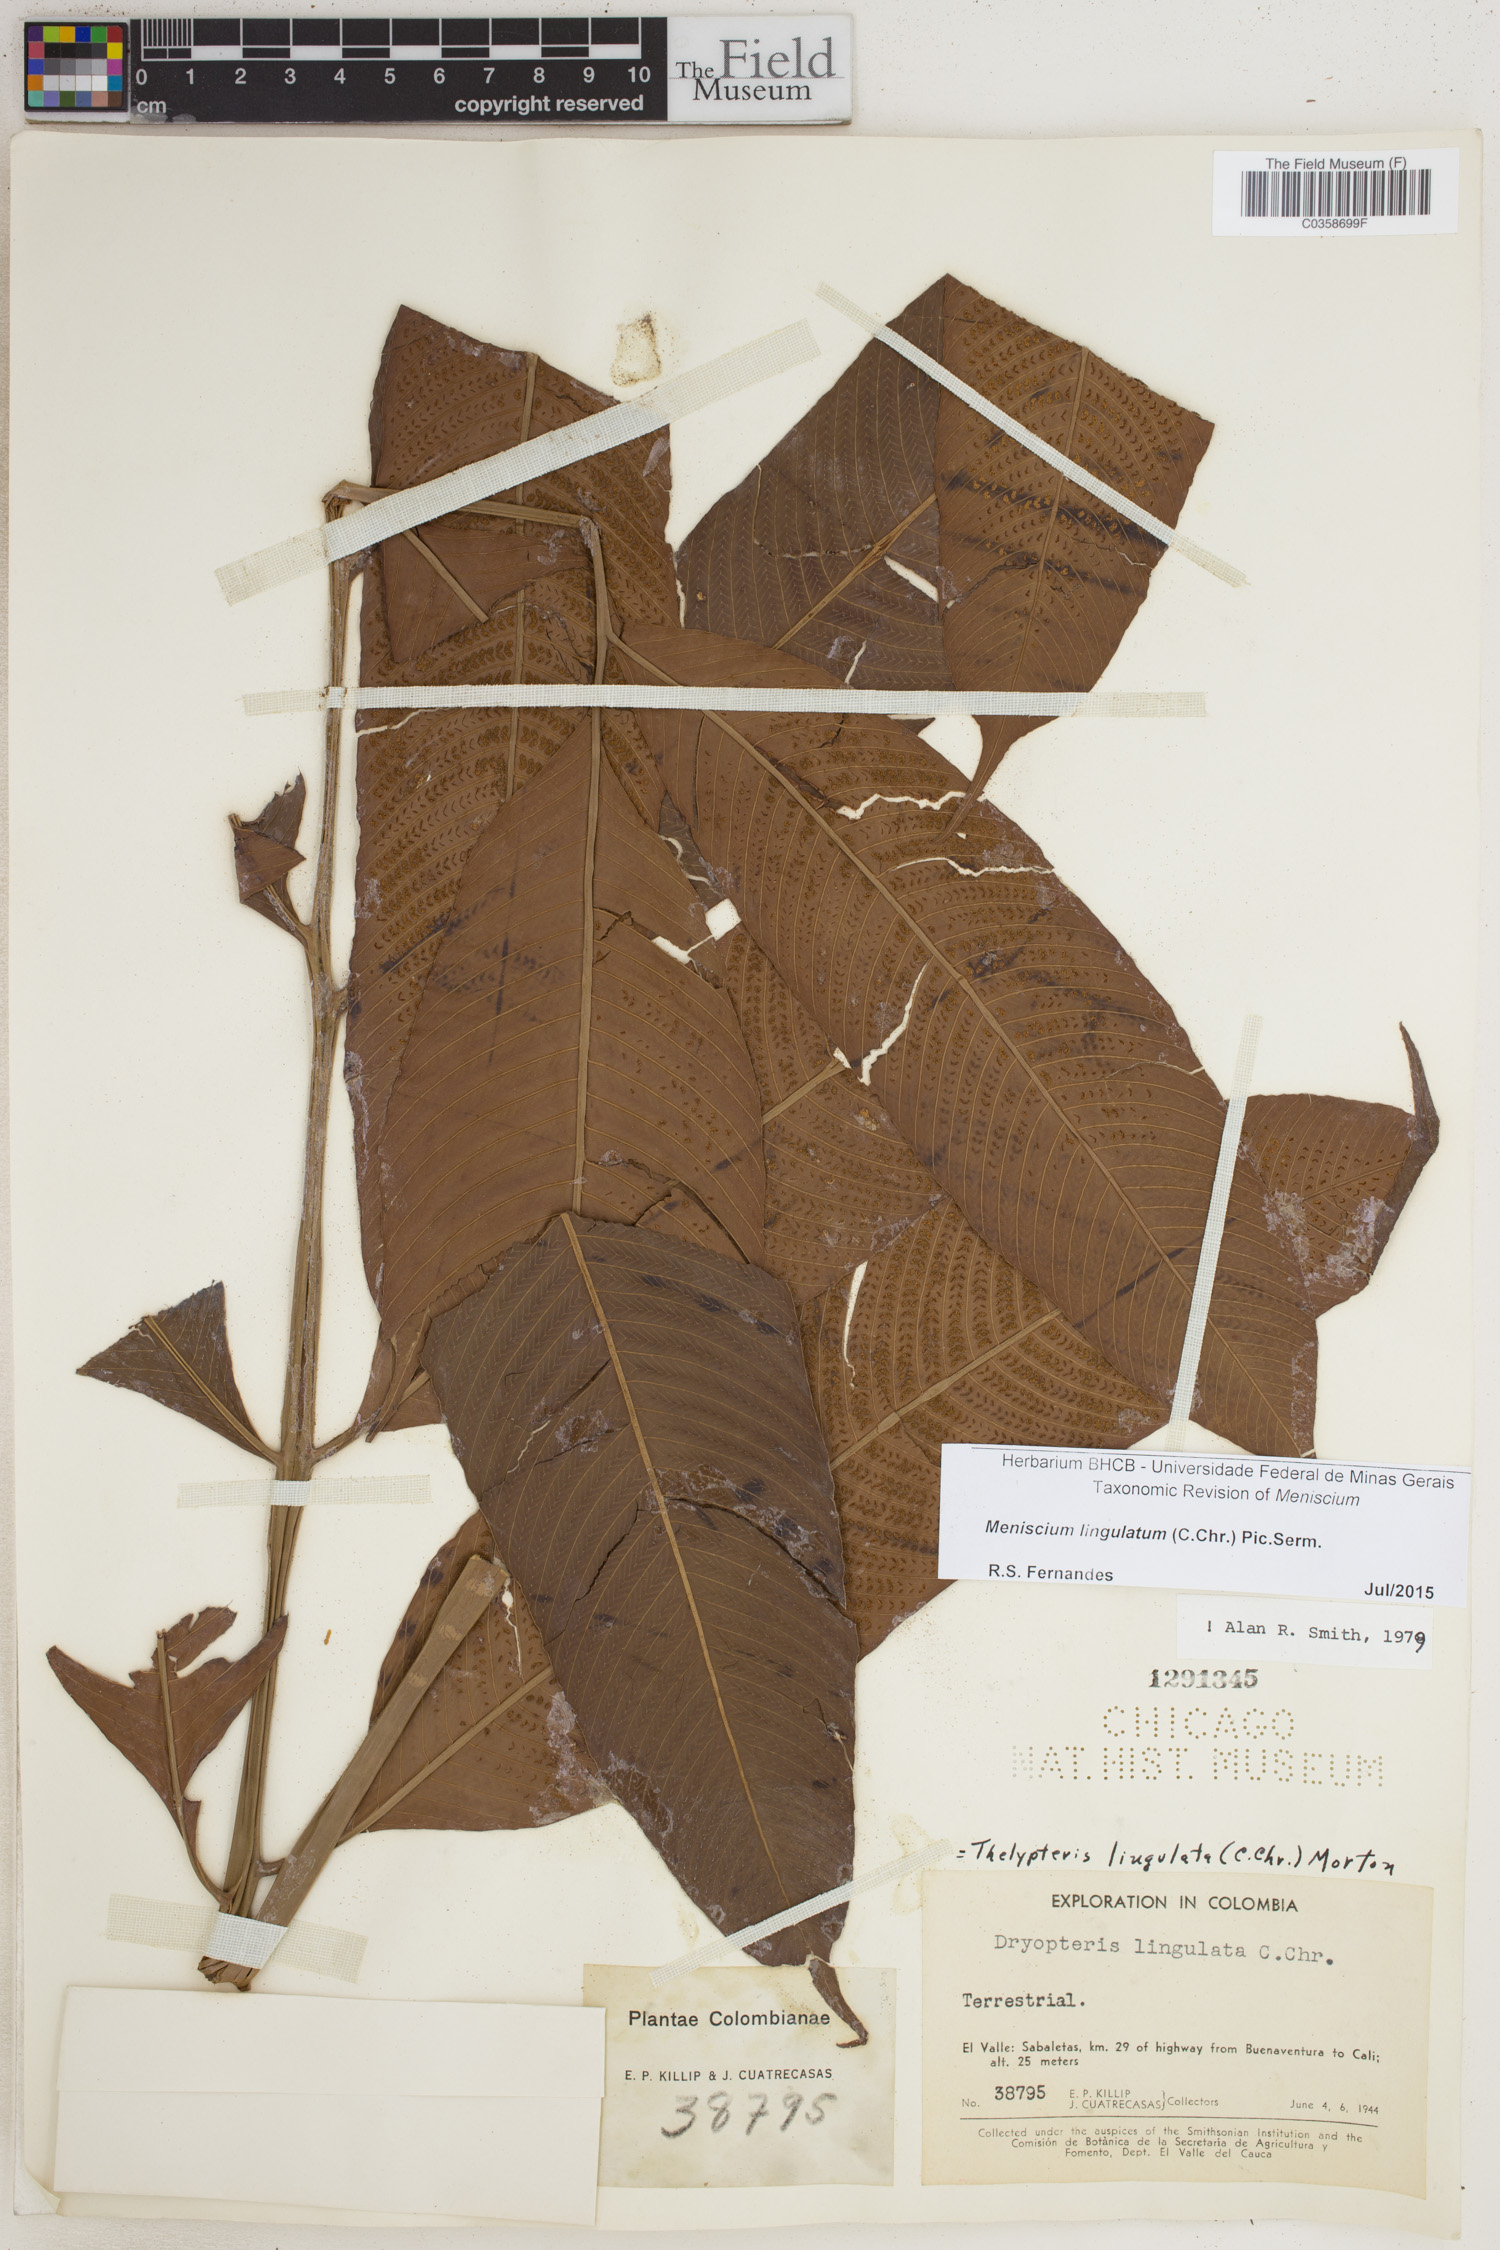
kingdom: Plantae
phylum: Tracheophyta
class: Polypodiopsida
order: Polypodiales
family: Thelypteridaceae
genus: Meniscium
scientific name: Meniscium lingulatum
